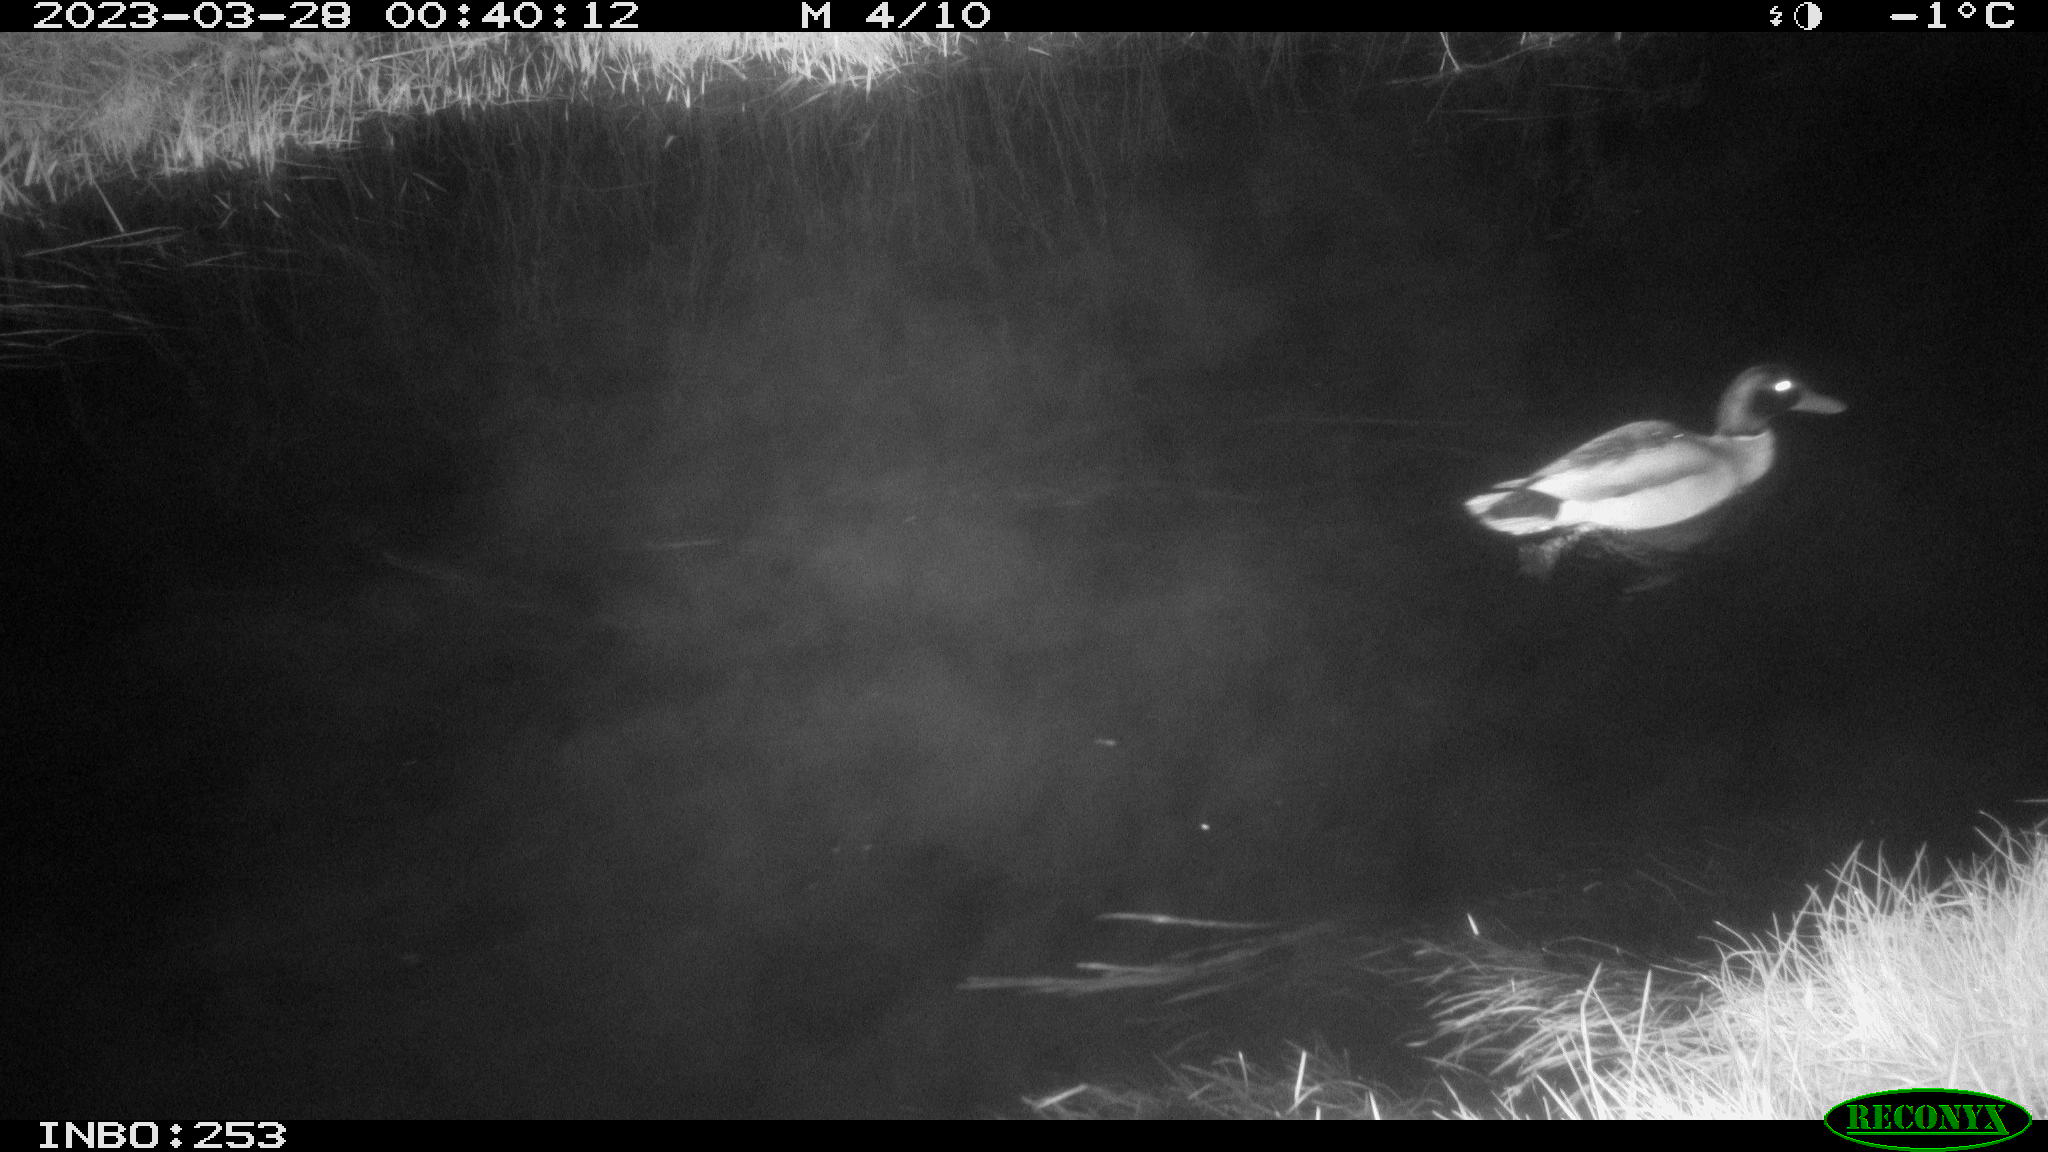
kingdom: Animalia
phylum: Chordata
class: Aves
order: Anseriformes
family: Anatidae
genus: Anas
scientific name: Anas
